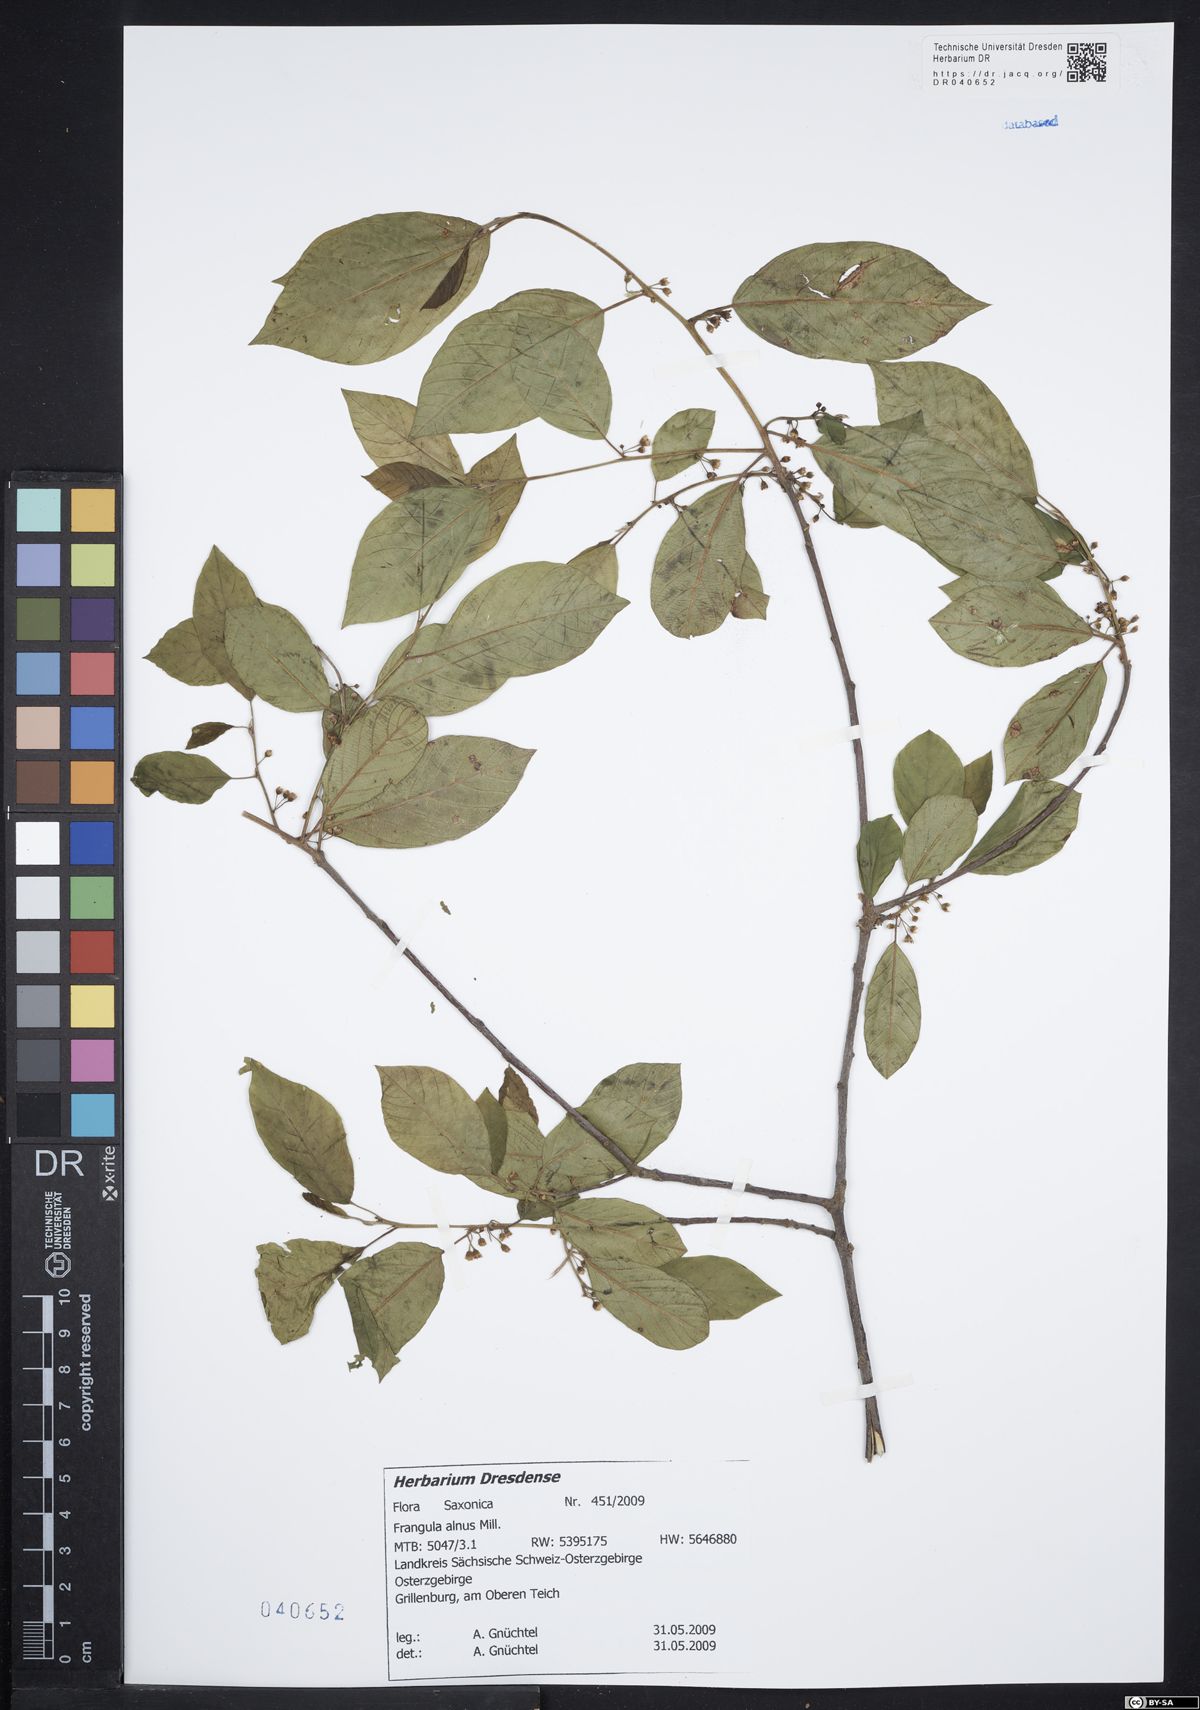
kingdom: Plantae
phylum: Tracheophyta
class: Magnoliopsida
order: Rosales
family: Rhamnaceae
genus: Frangula
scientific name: Frangula alnus
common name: Alder buckthorn
